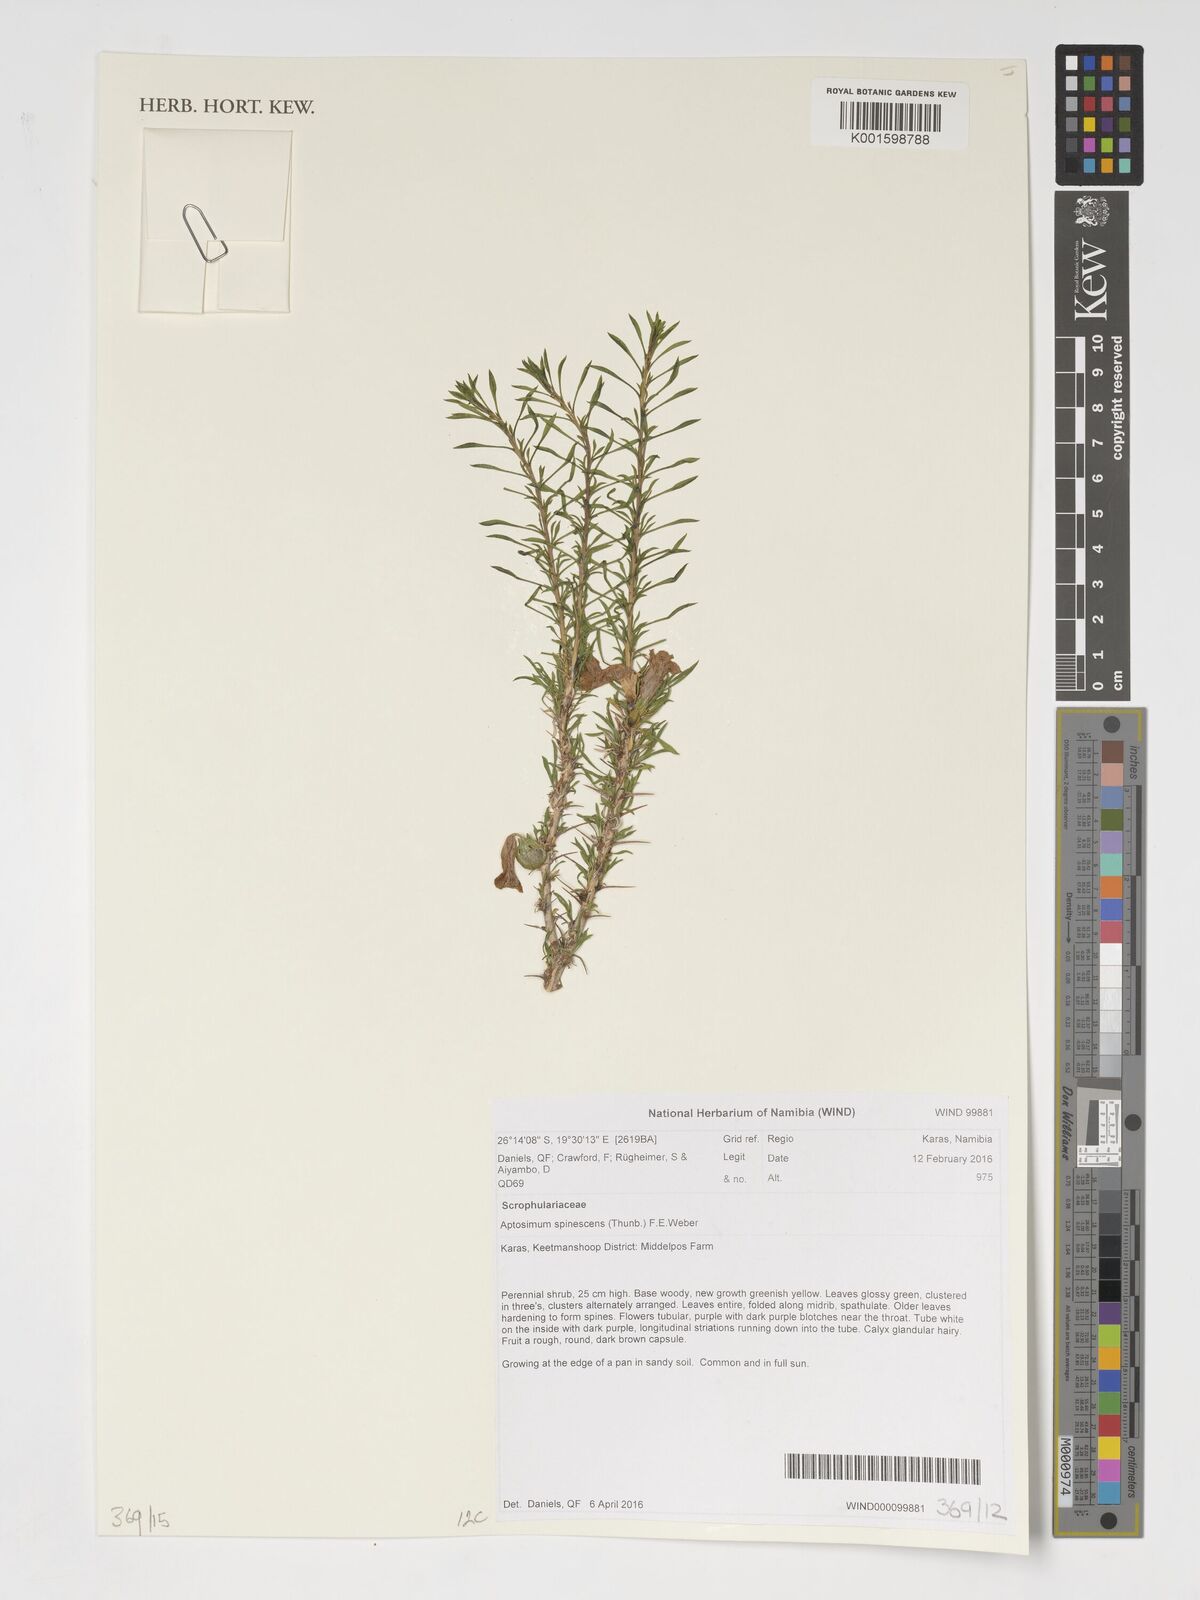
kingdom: Plantae
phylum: Tracheophyta
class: Magnoliopsida
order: Lamiales
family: Scrophulariaceae
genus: Aptosimum
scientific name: Aptosimum spinescens
